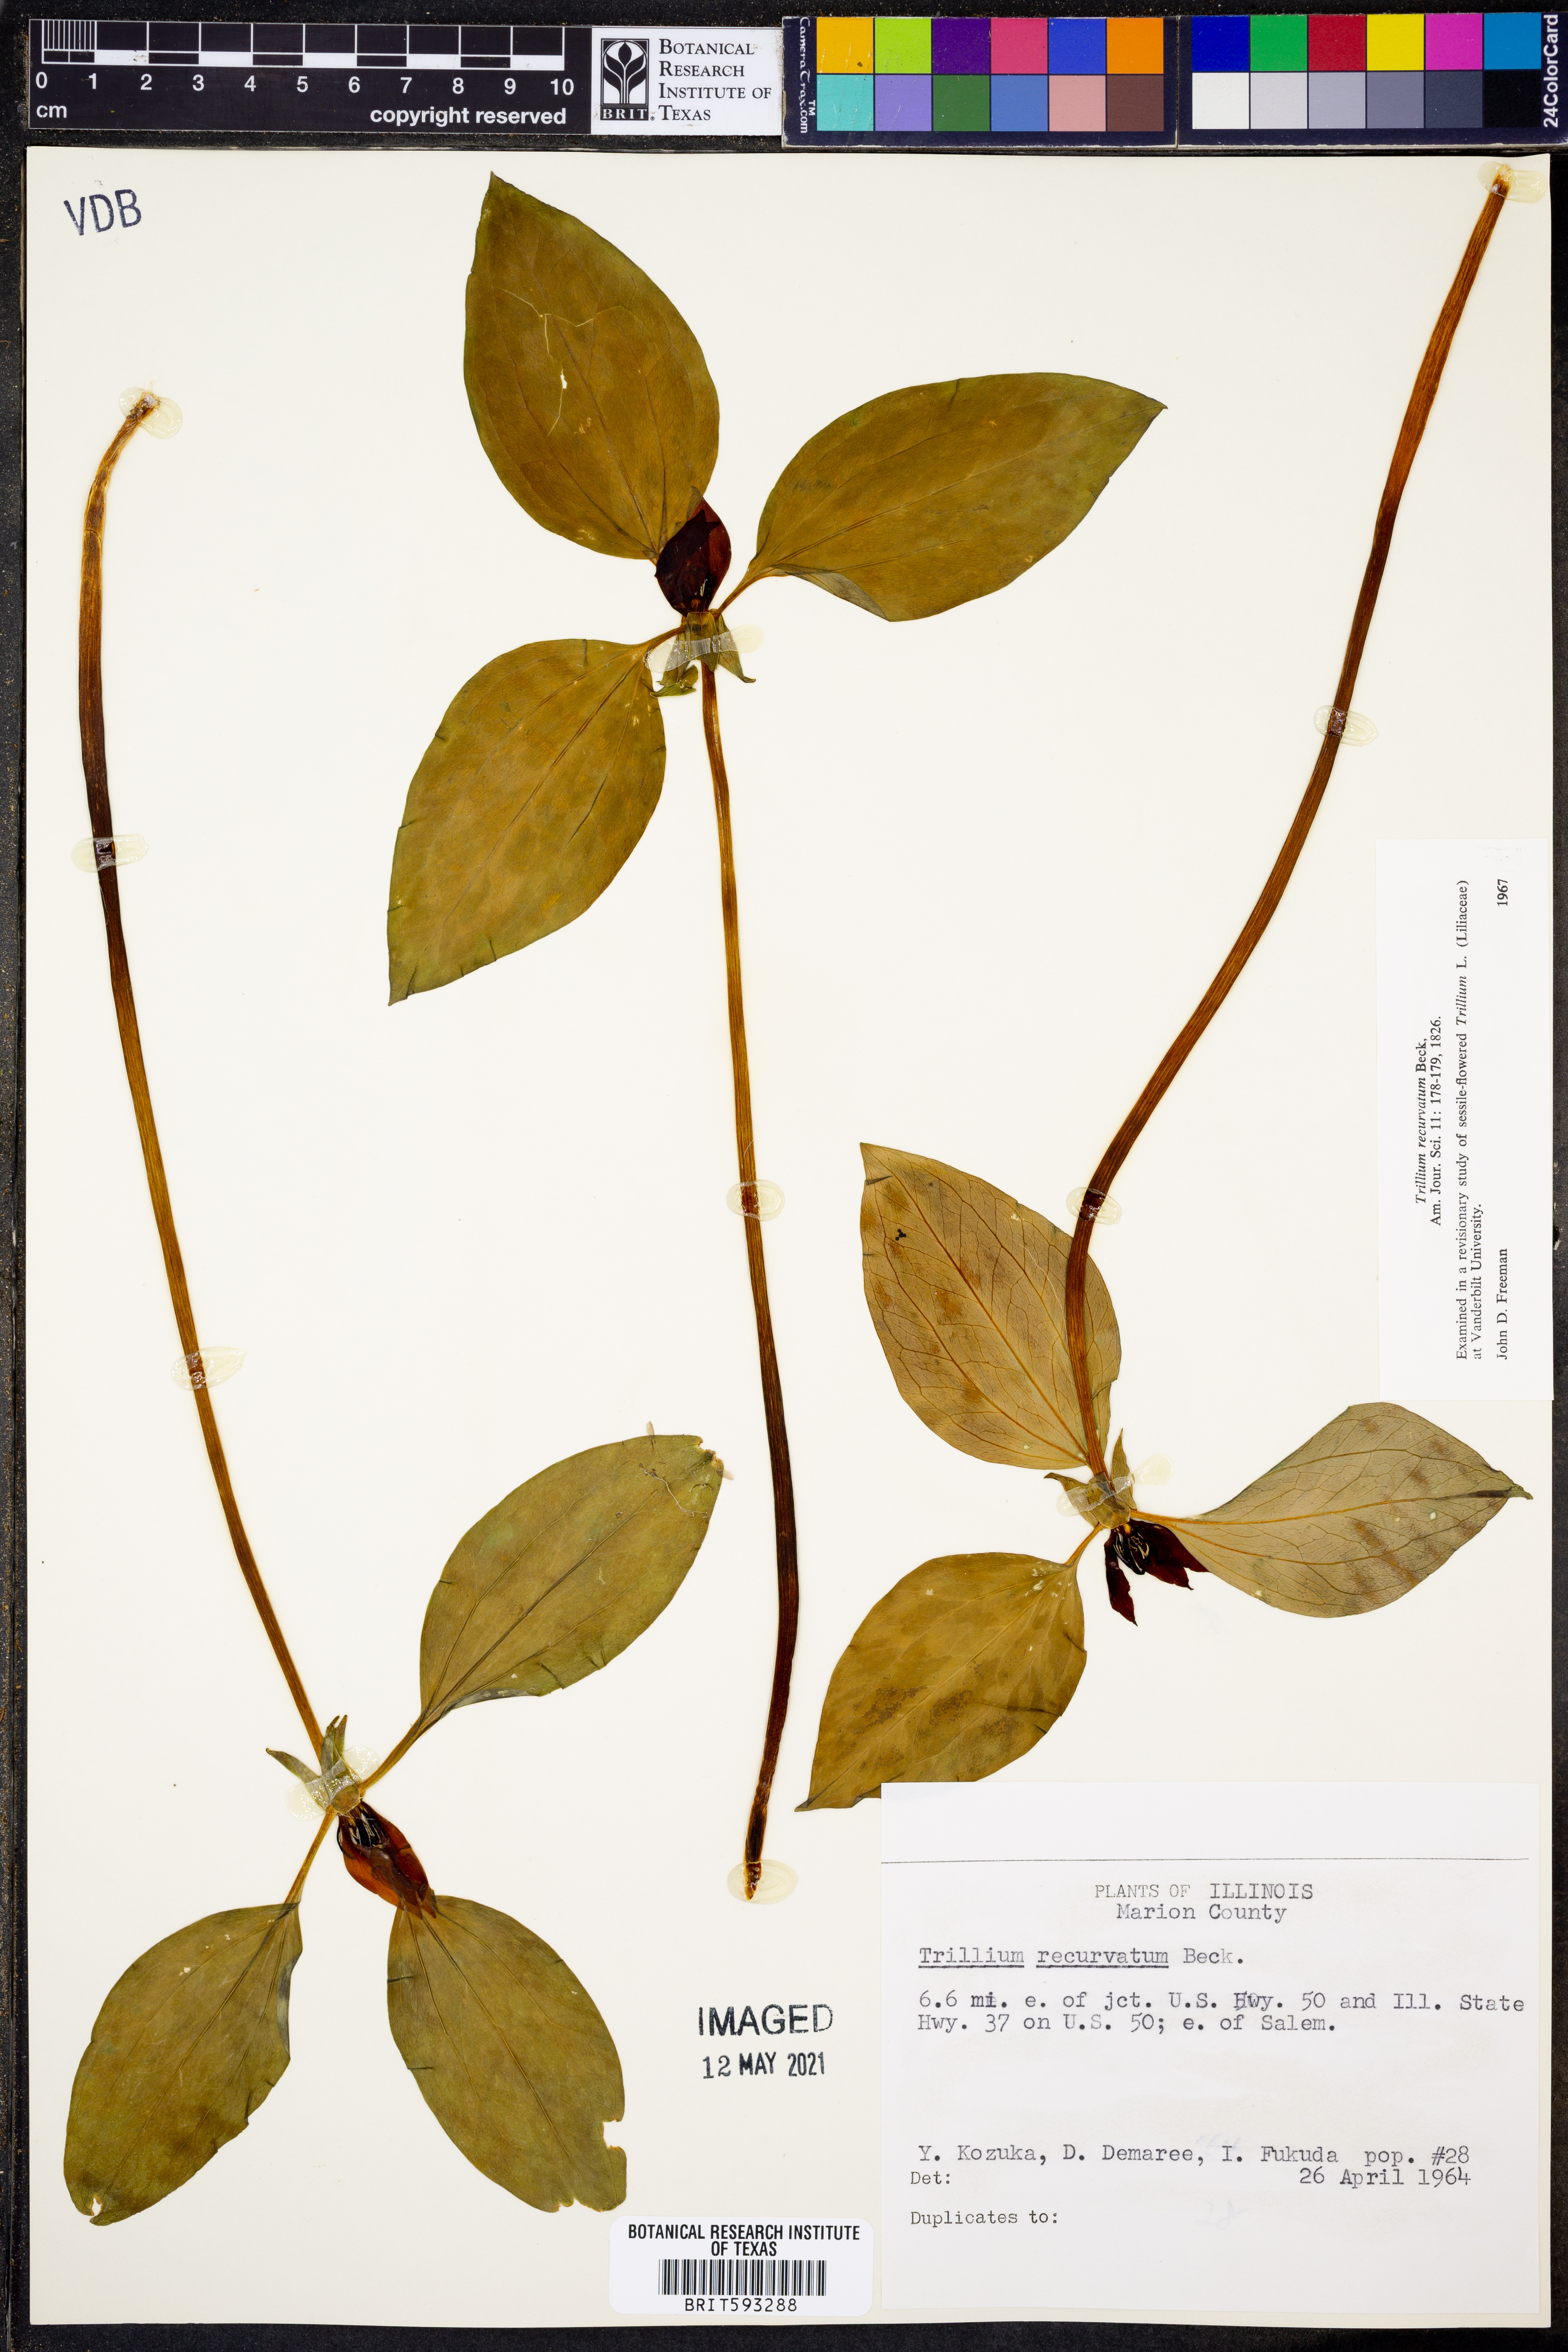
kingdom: Plantae
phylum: Tracheophyta
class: Liliopsida
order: Liliales
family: Melanthiaceae
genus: Trillium
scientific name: Trillium recurvatum
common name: Bloody butcher
